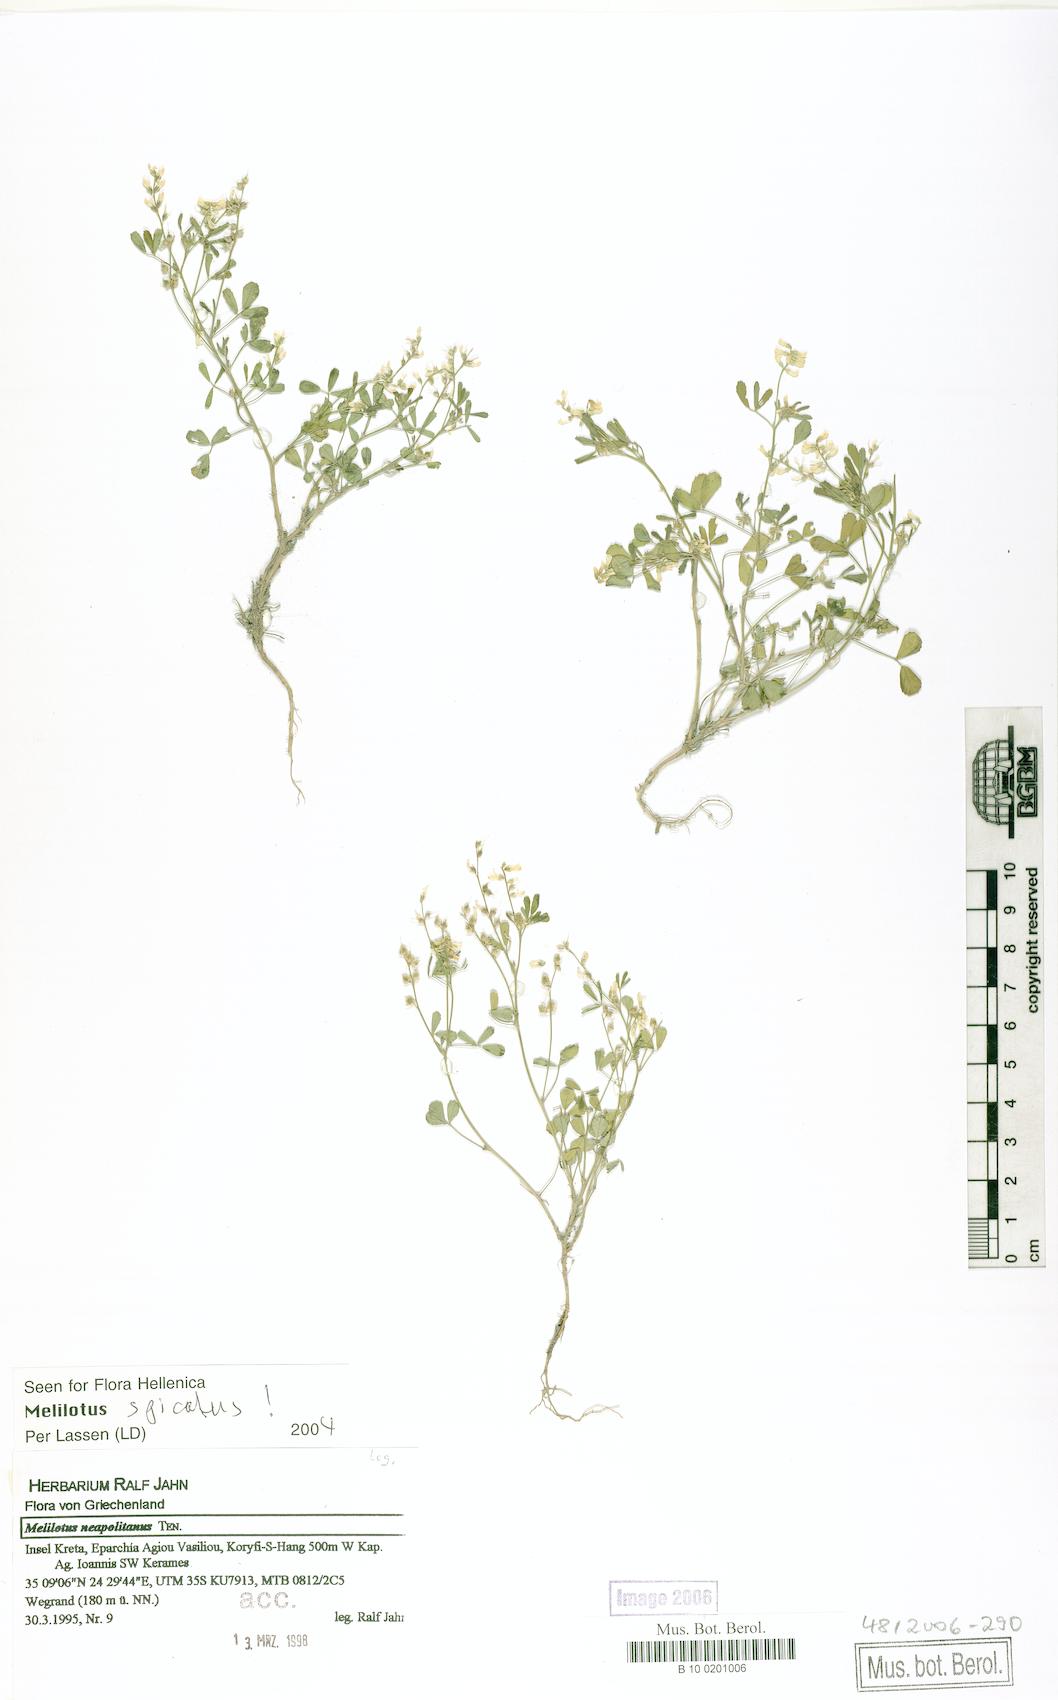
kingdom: Plantae
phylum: Tracheophyta
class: Magnoliopsida
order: Fabales
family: Fabaceae
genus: Melilotus
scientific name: Melilotus neapolitanus
